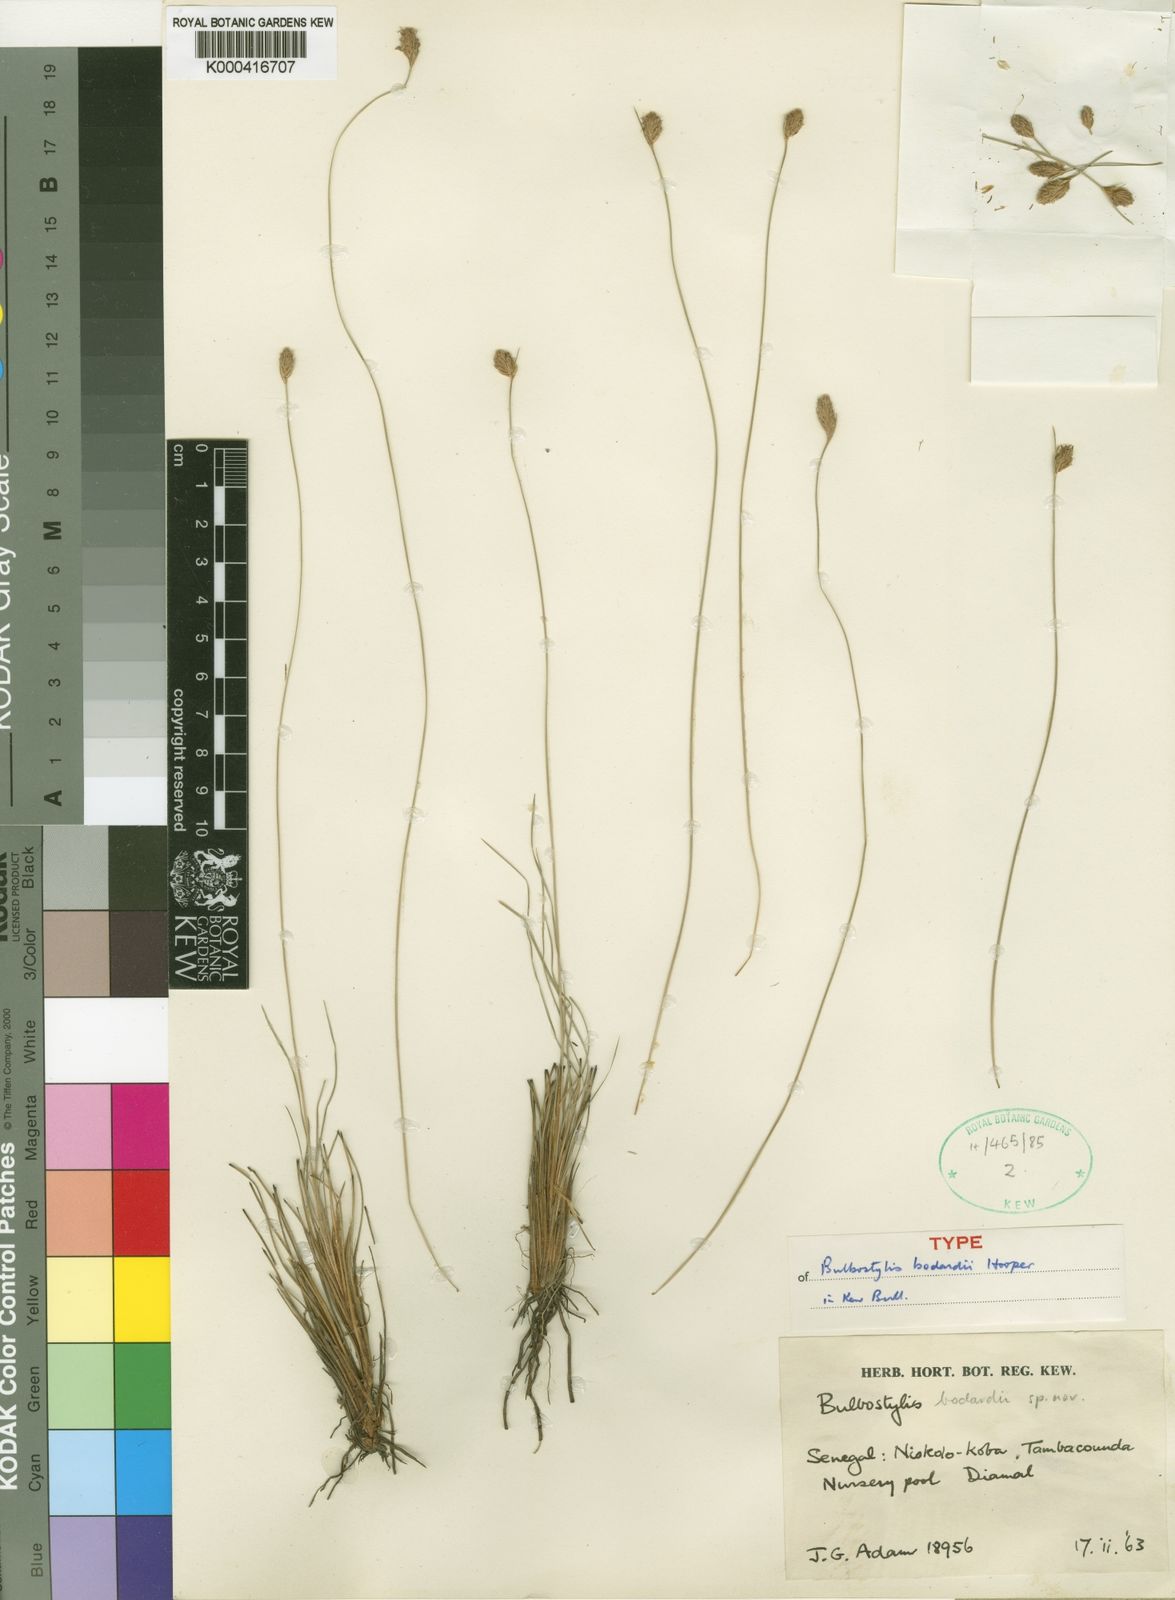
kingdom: Plantae
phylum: Tracheophyta
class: Liliopsida
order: Poales
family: Cyperaceae
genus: Bulbostylis
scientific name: Bulbostylis bodardii
